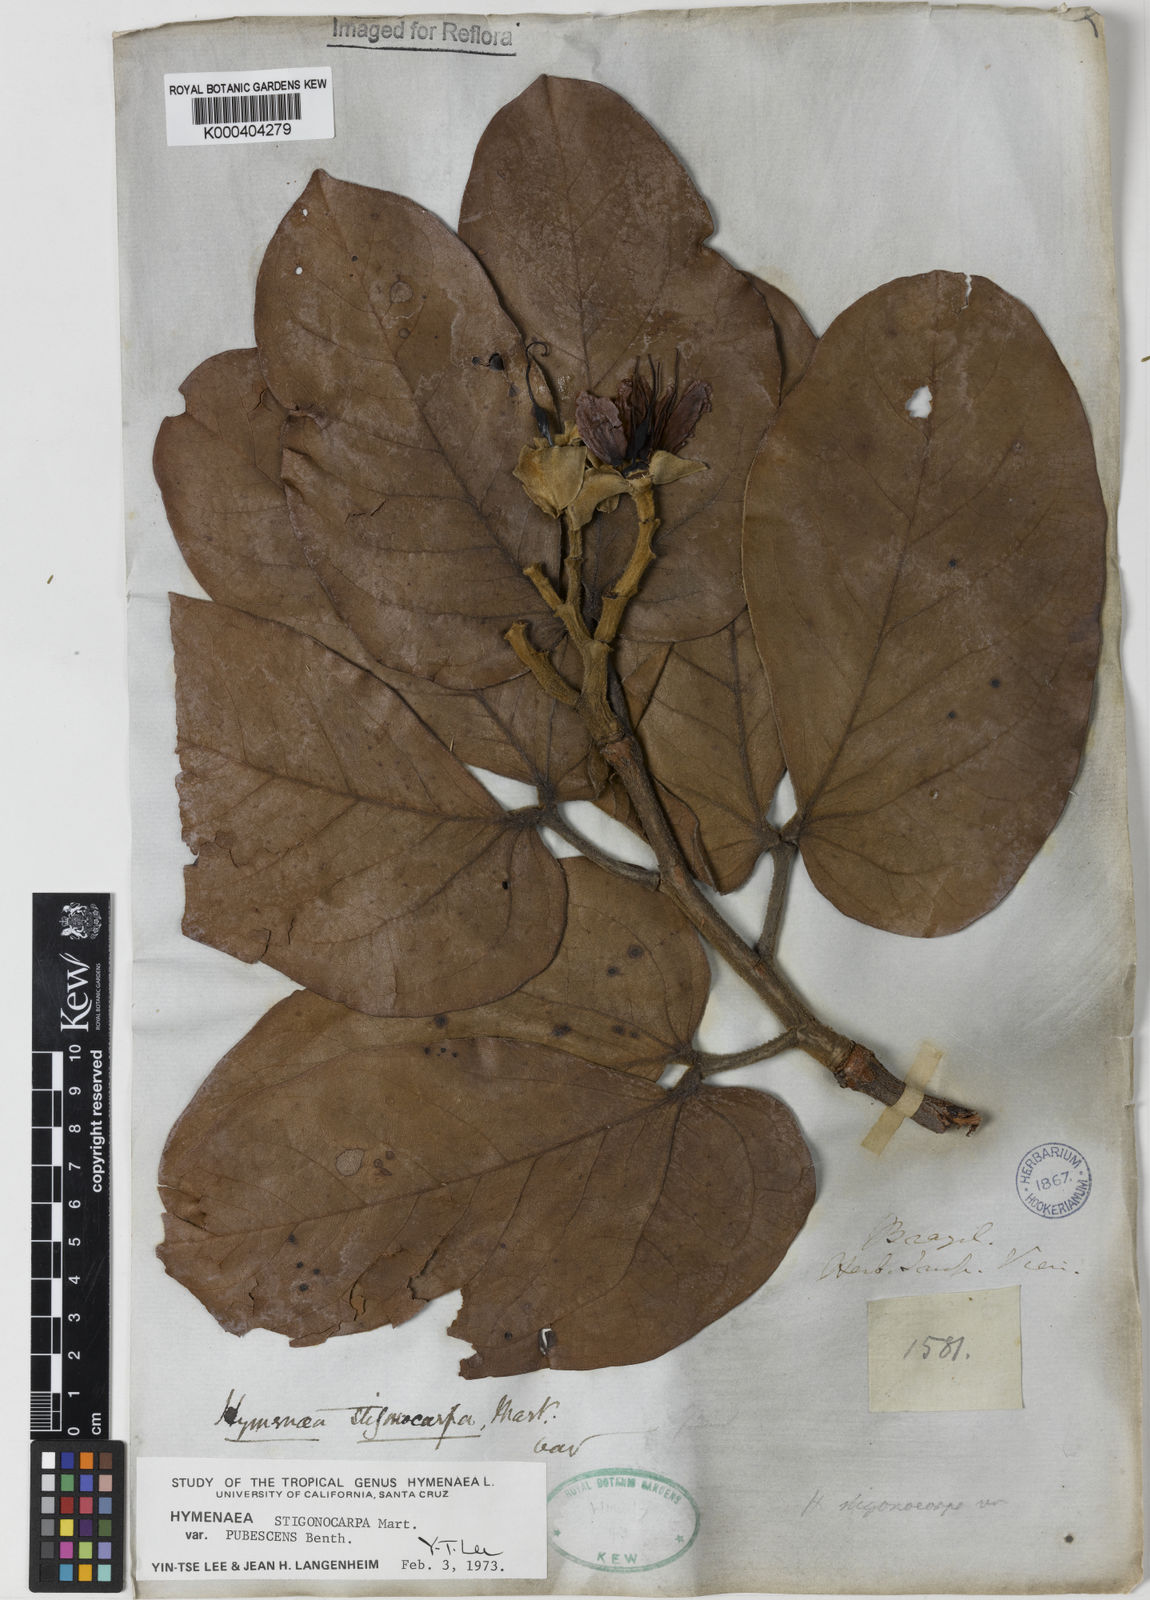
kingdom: Plantae
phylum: Tracheophyta
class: Magnoliopsida
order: Fabales
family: Fabaceae
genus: Hymenaea
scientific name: Hymenaea stigonocarpa
